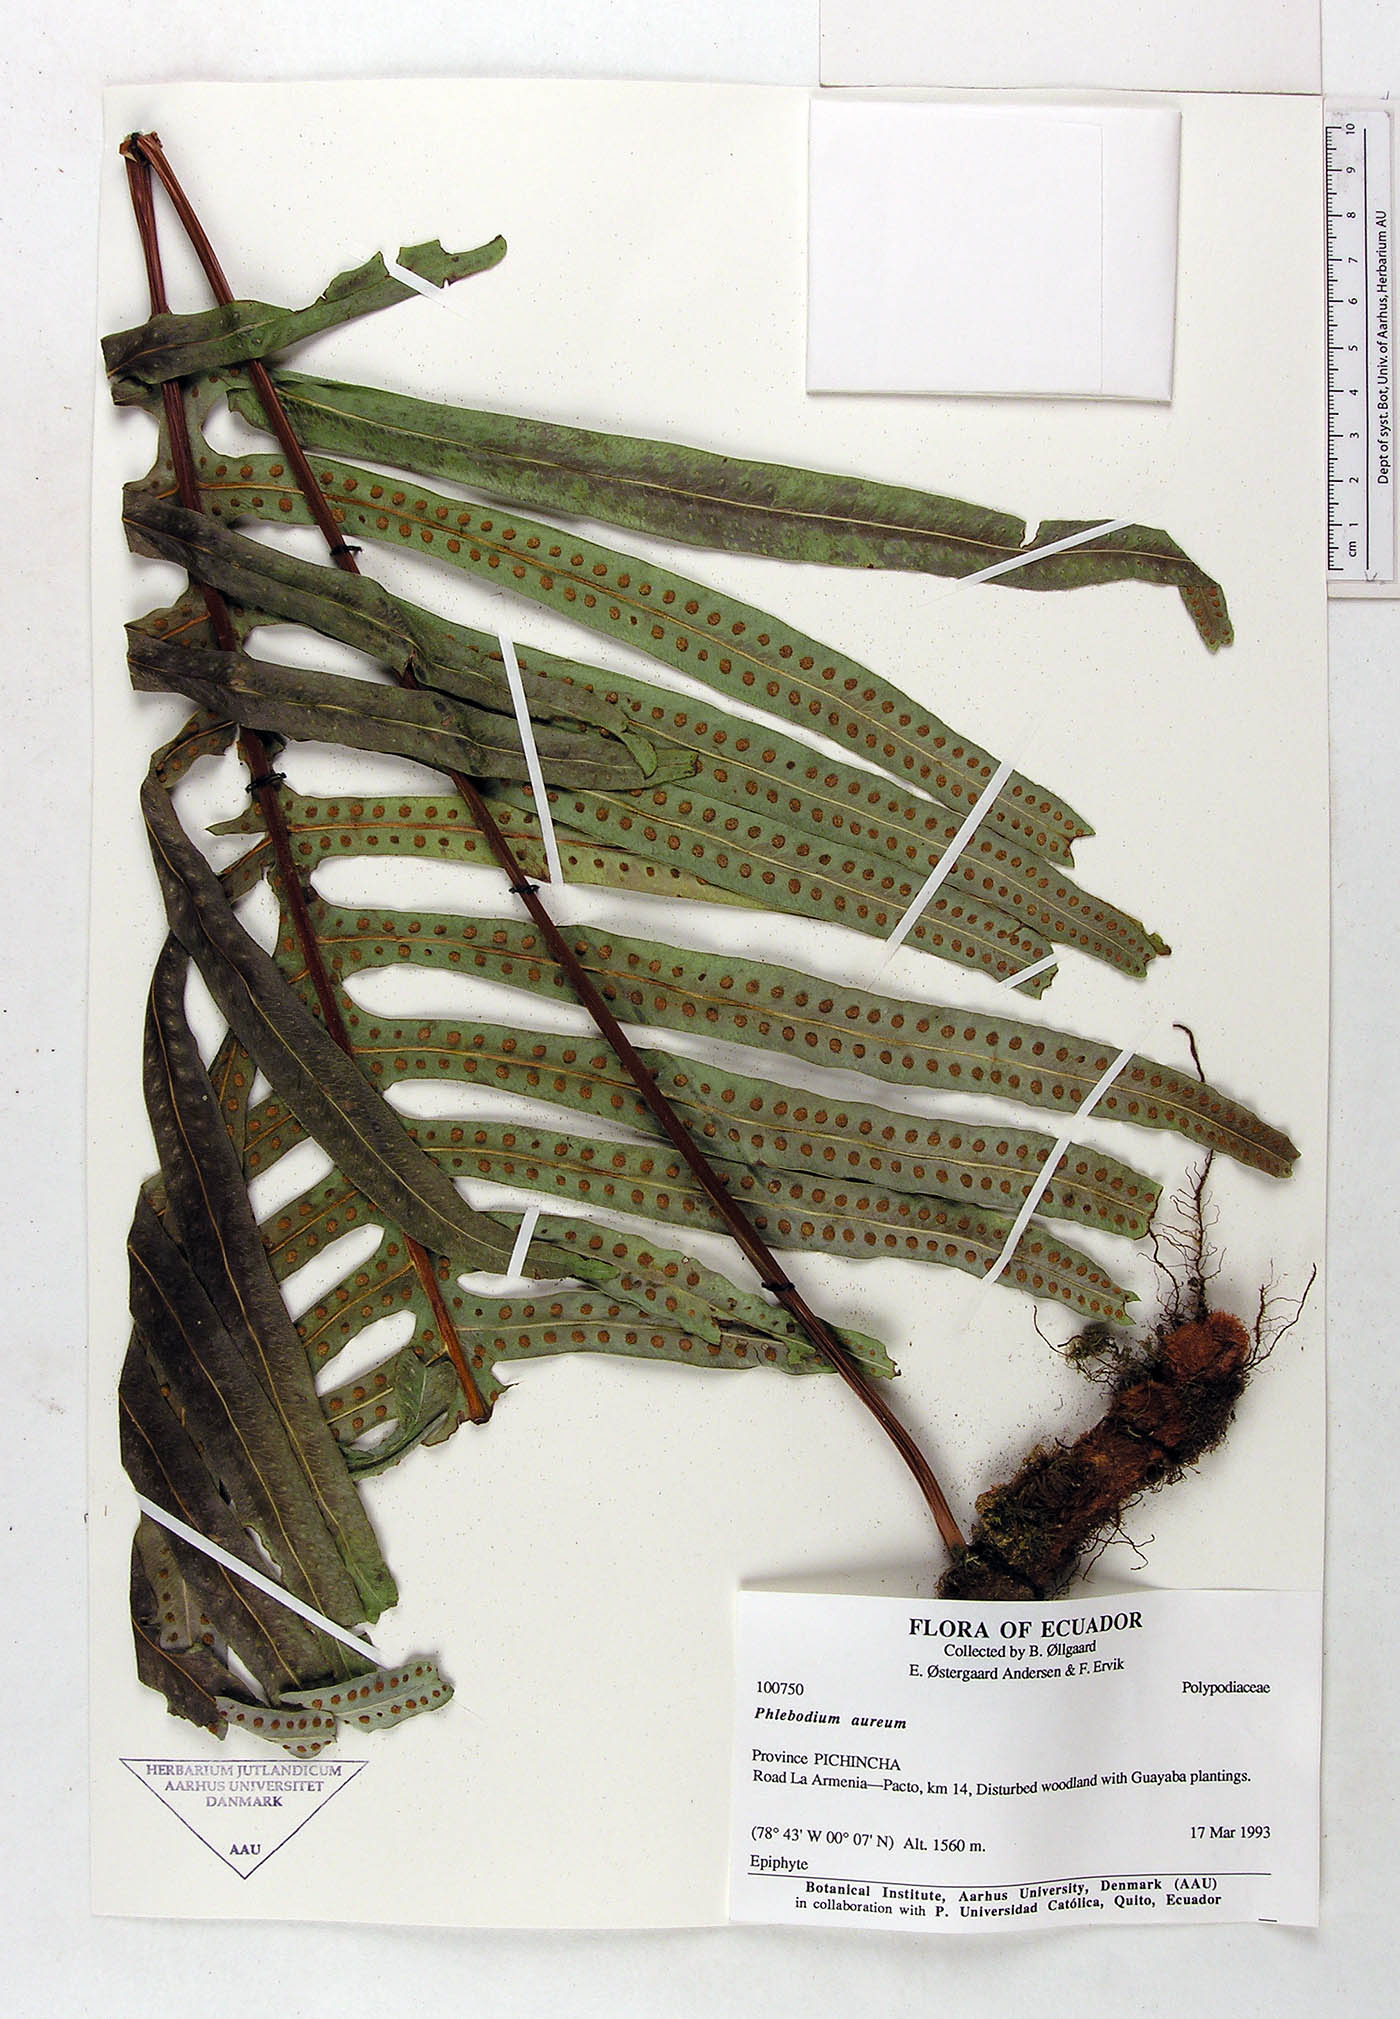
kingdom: Plantae
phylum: Tracheophyta
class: Polypodiopsida
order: Polypodiales
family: Polypodiaceae
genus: Phlebodium
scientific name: Phlebodium aureum
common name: Gold-foot fern
